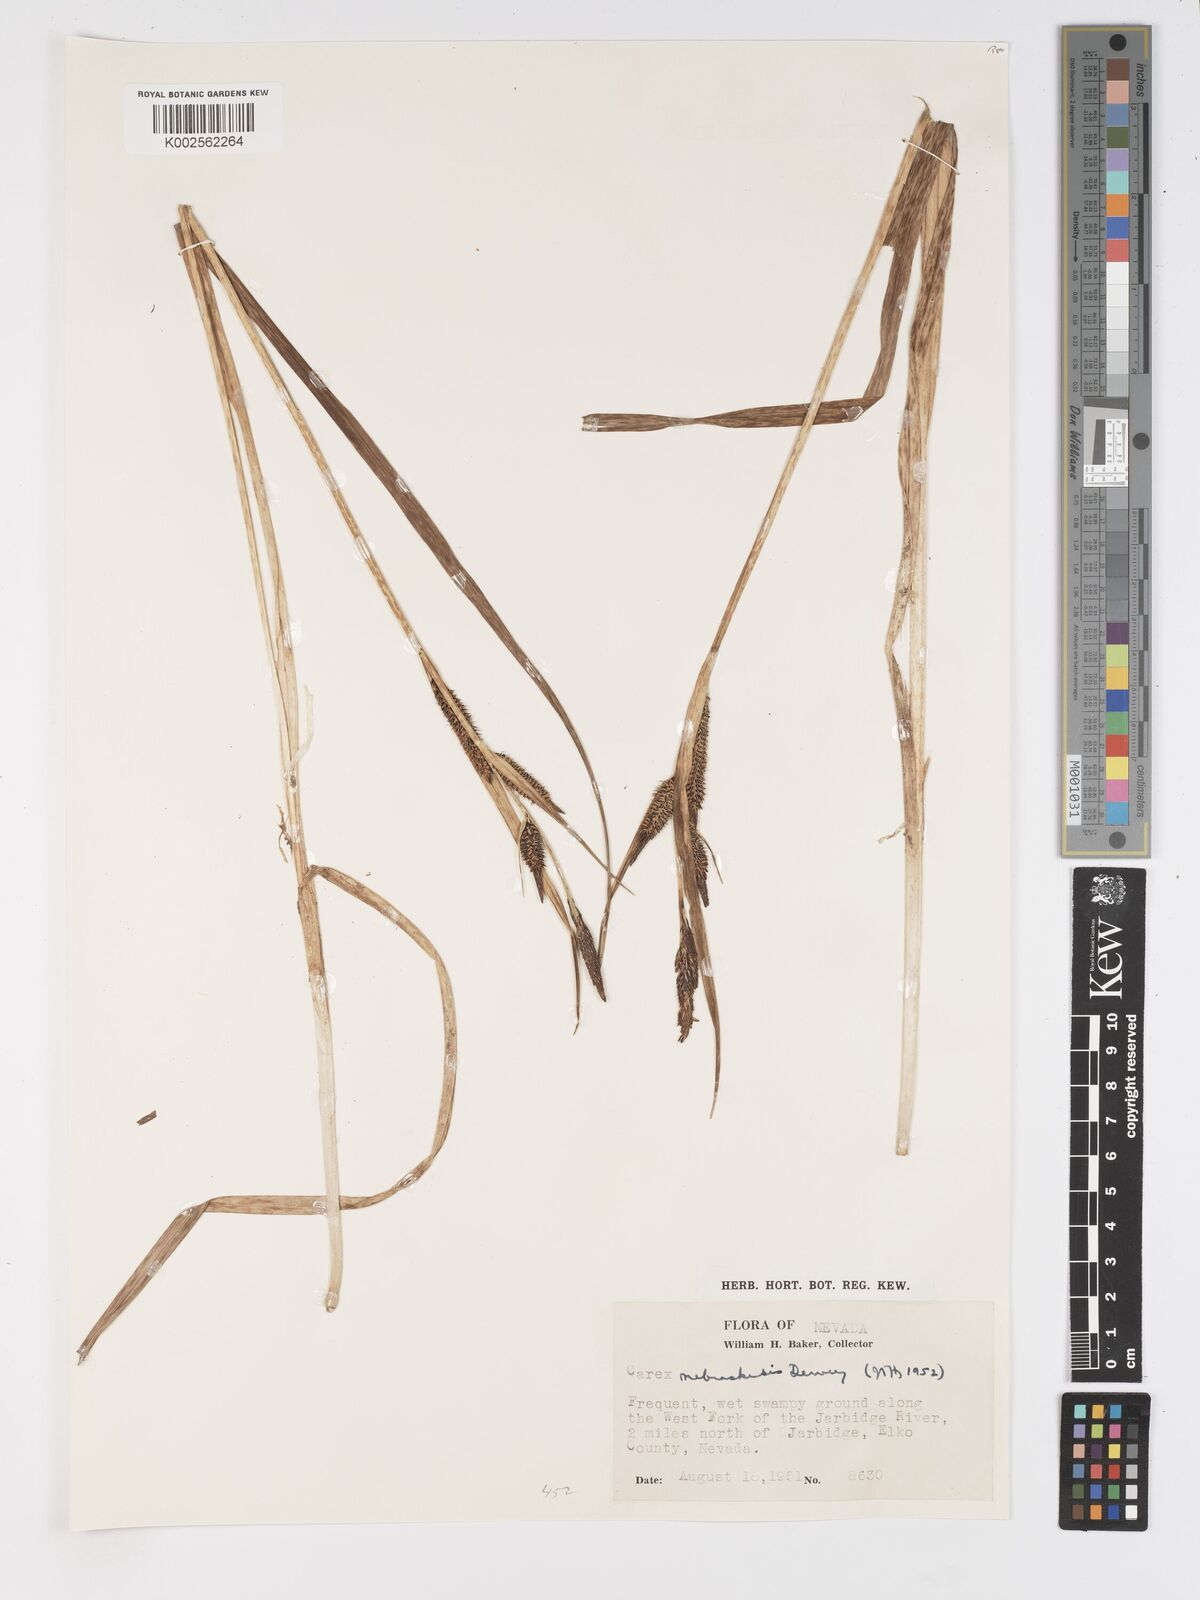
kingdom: Plantae
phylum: Tracheophyta
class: Liliopsida
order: Poales
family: Cyperaceae
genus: Carex
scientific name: Carex nebrascensis
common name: Nebraska sedge
